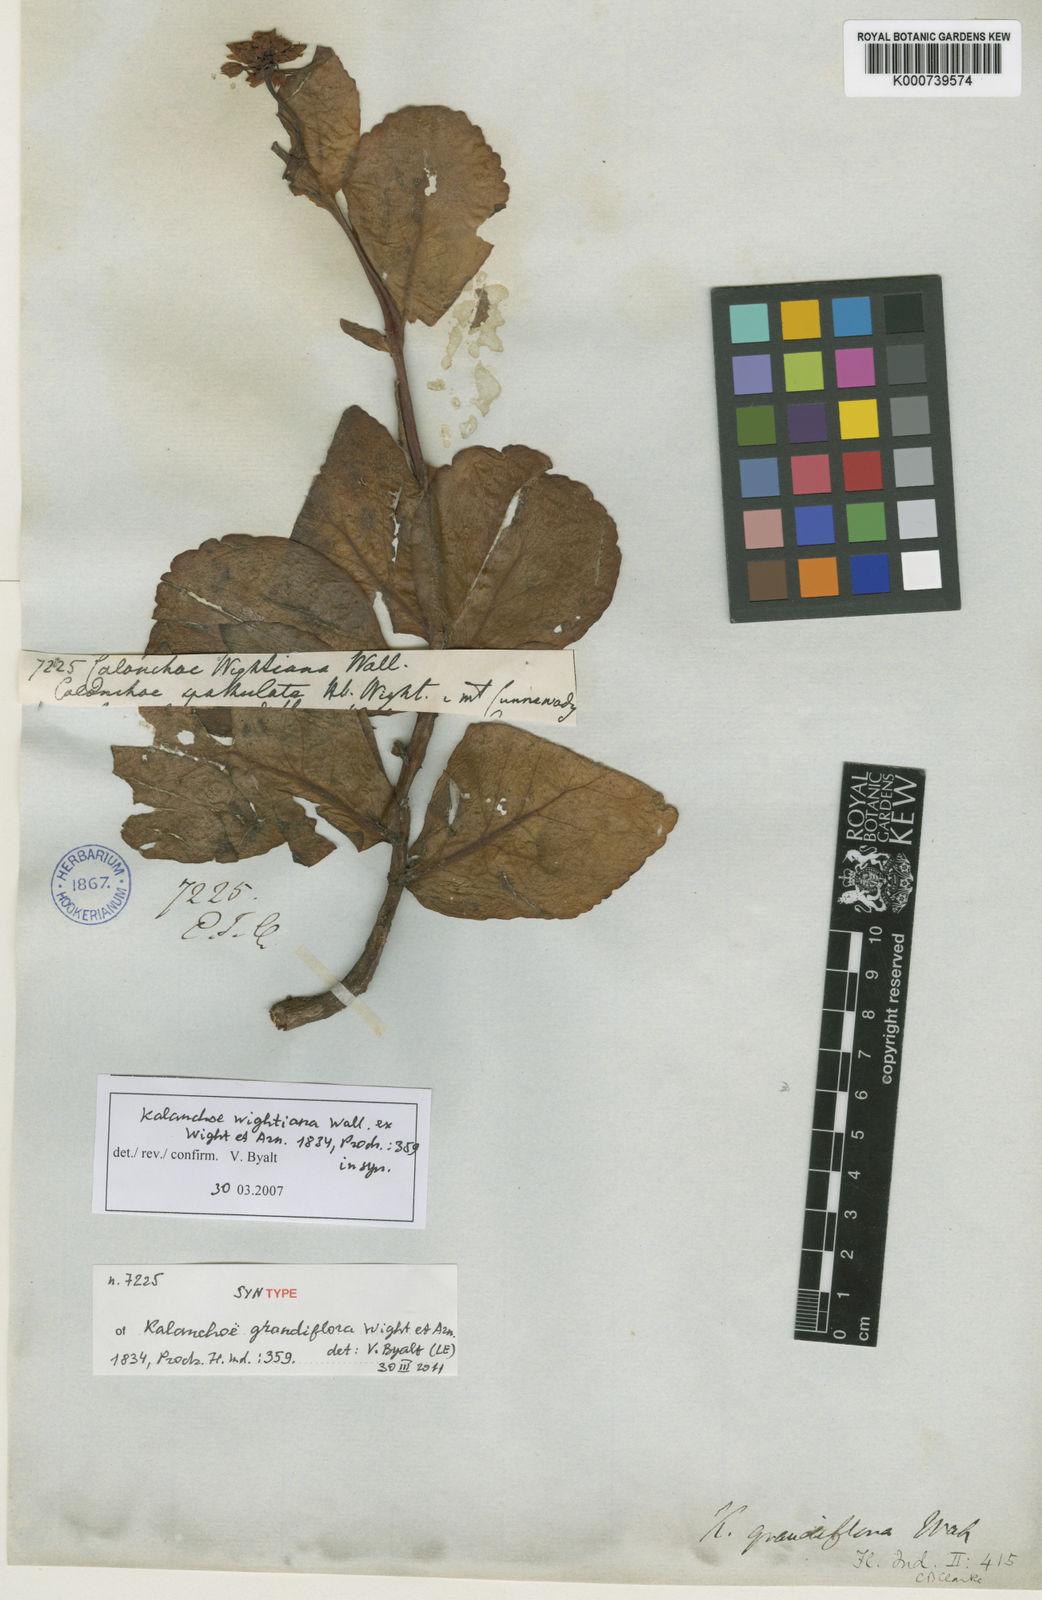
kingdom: Plantae
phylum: Tracheophyta
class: Magnoliopsida
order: Saxifragales
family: Crassulaceae
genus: Kalanchoe
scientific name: Kalanchoe lanceolata
